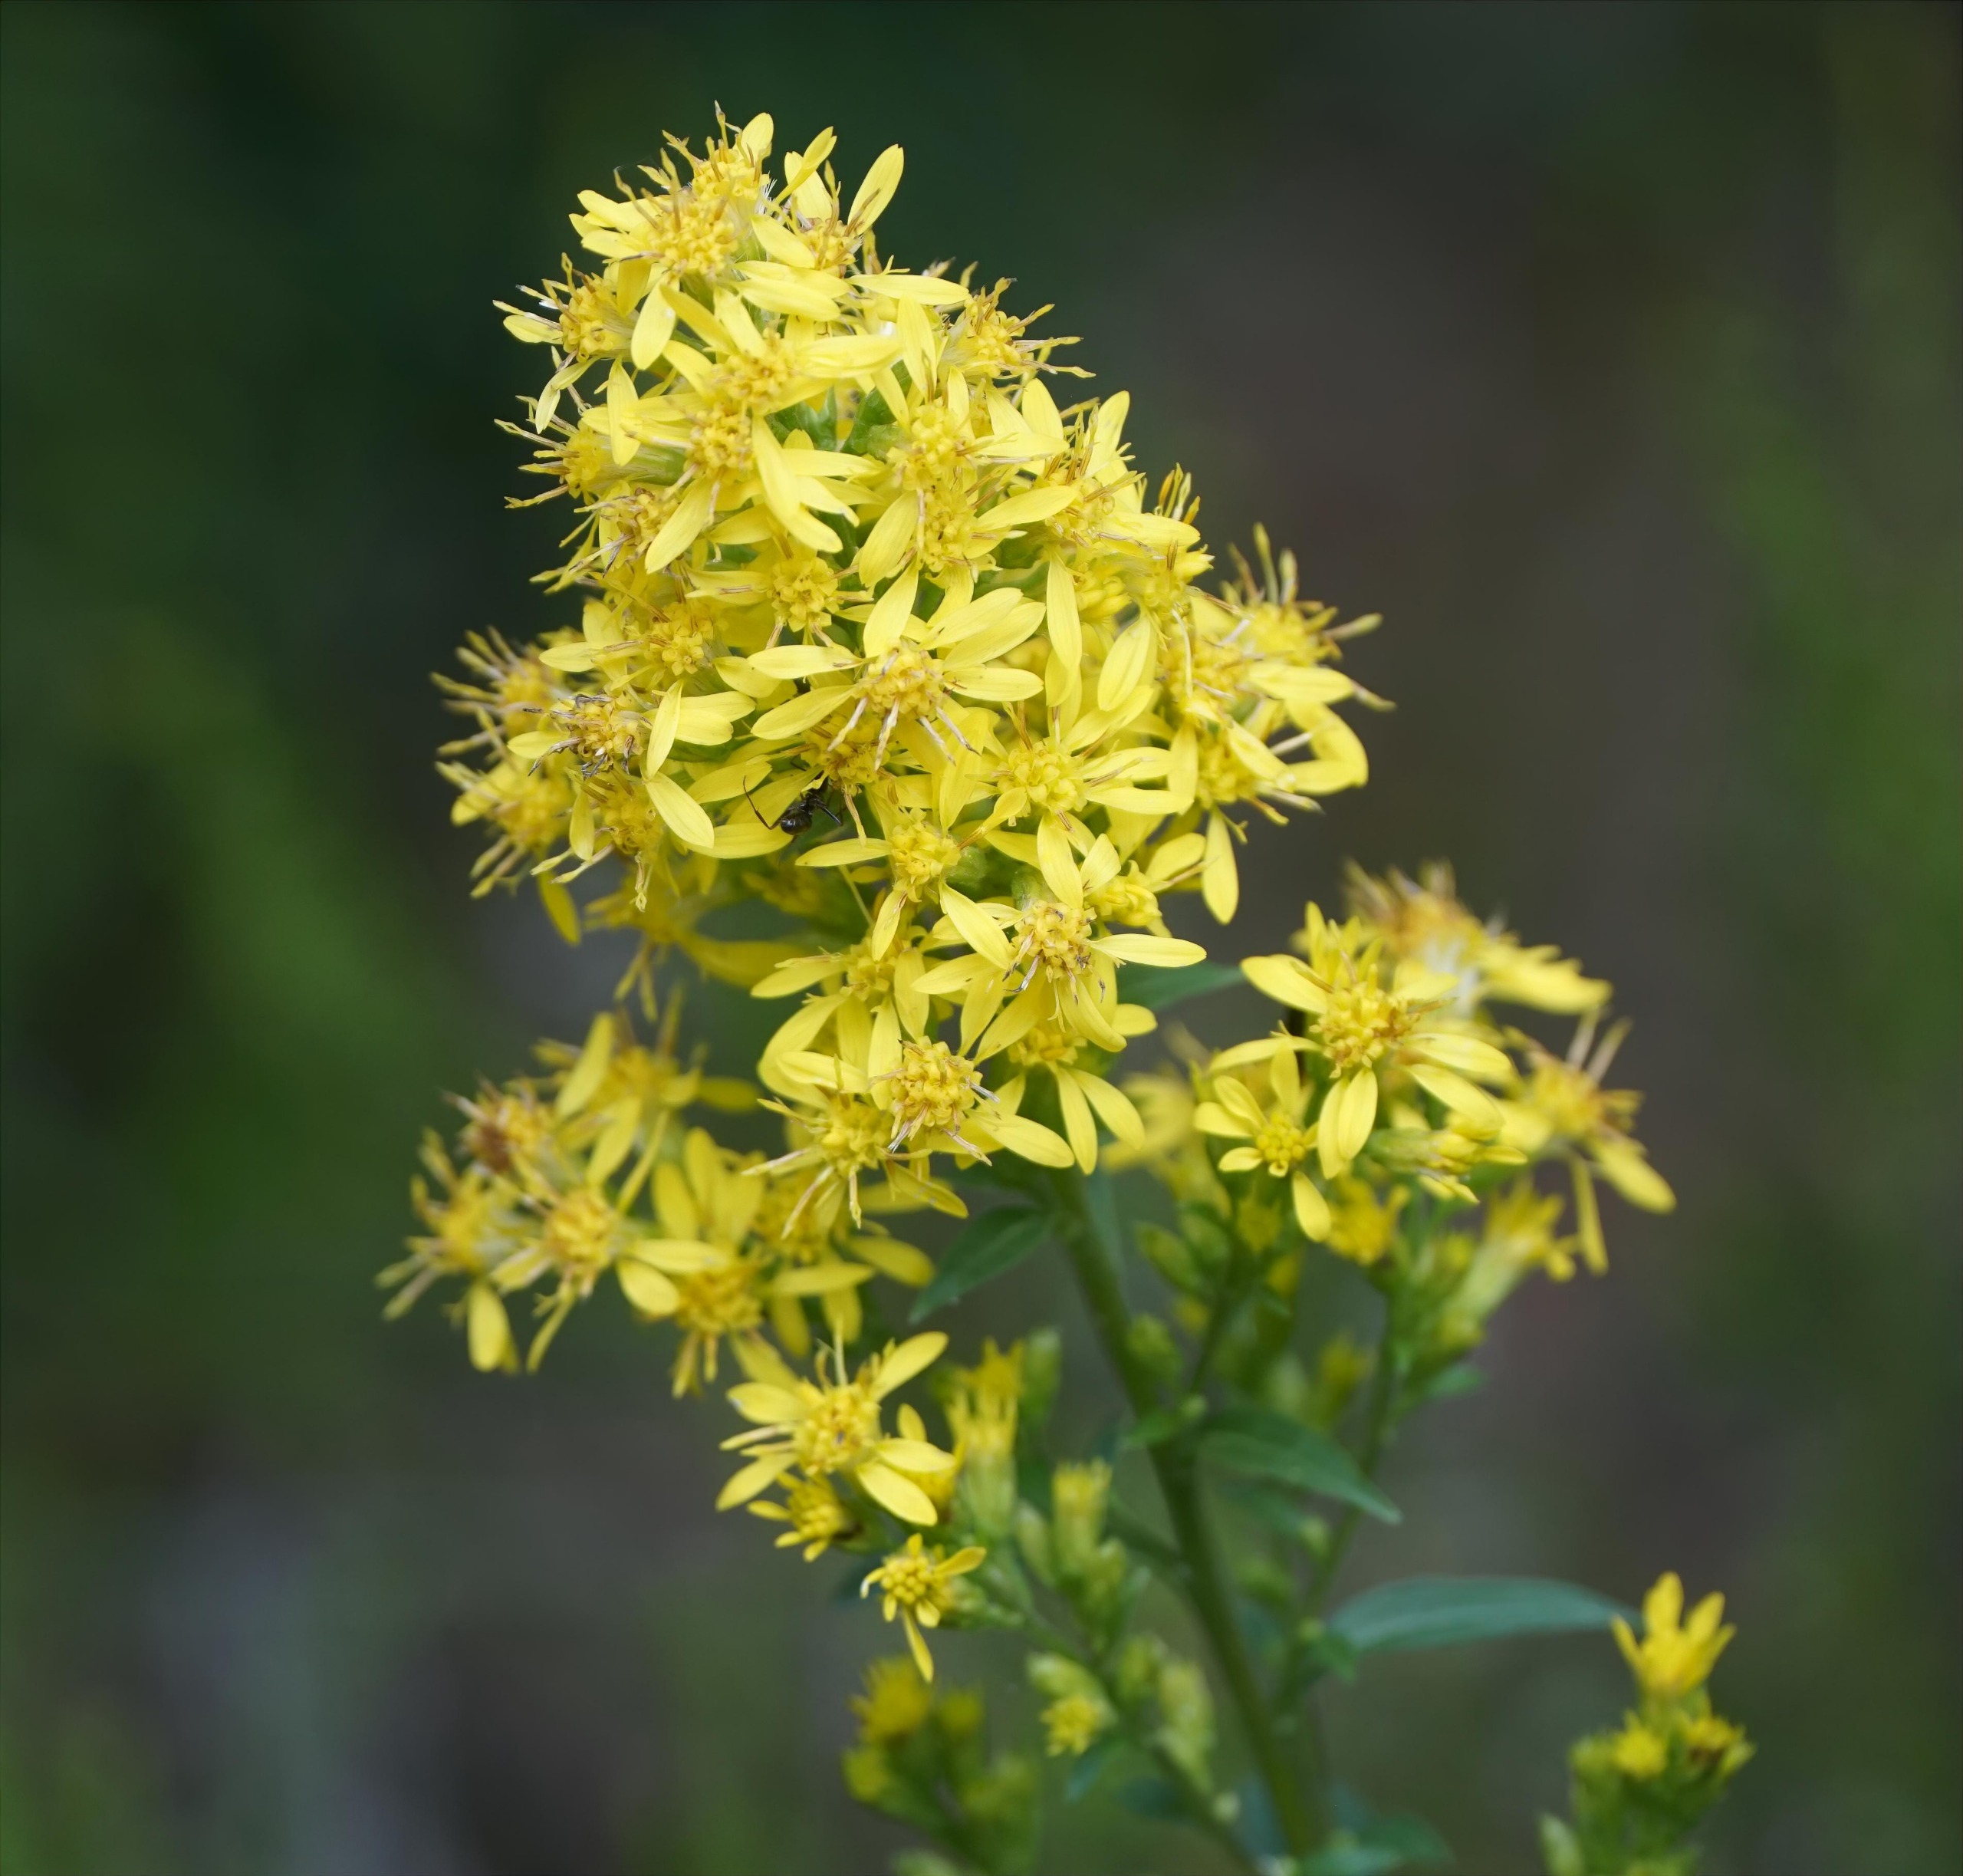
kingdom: Plantae
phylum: Tracheophyta
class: Magnoliopsida
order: Asterales
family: Asteraceae
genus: Solidago
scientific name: Solidago virgaurea
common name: Almindelig gyldenris
